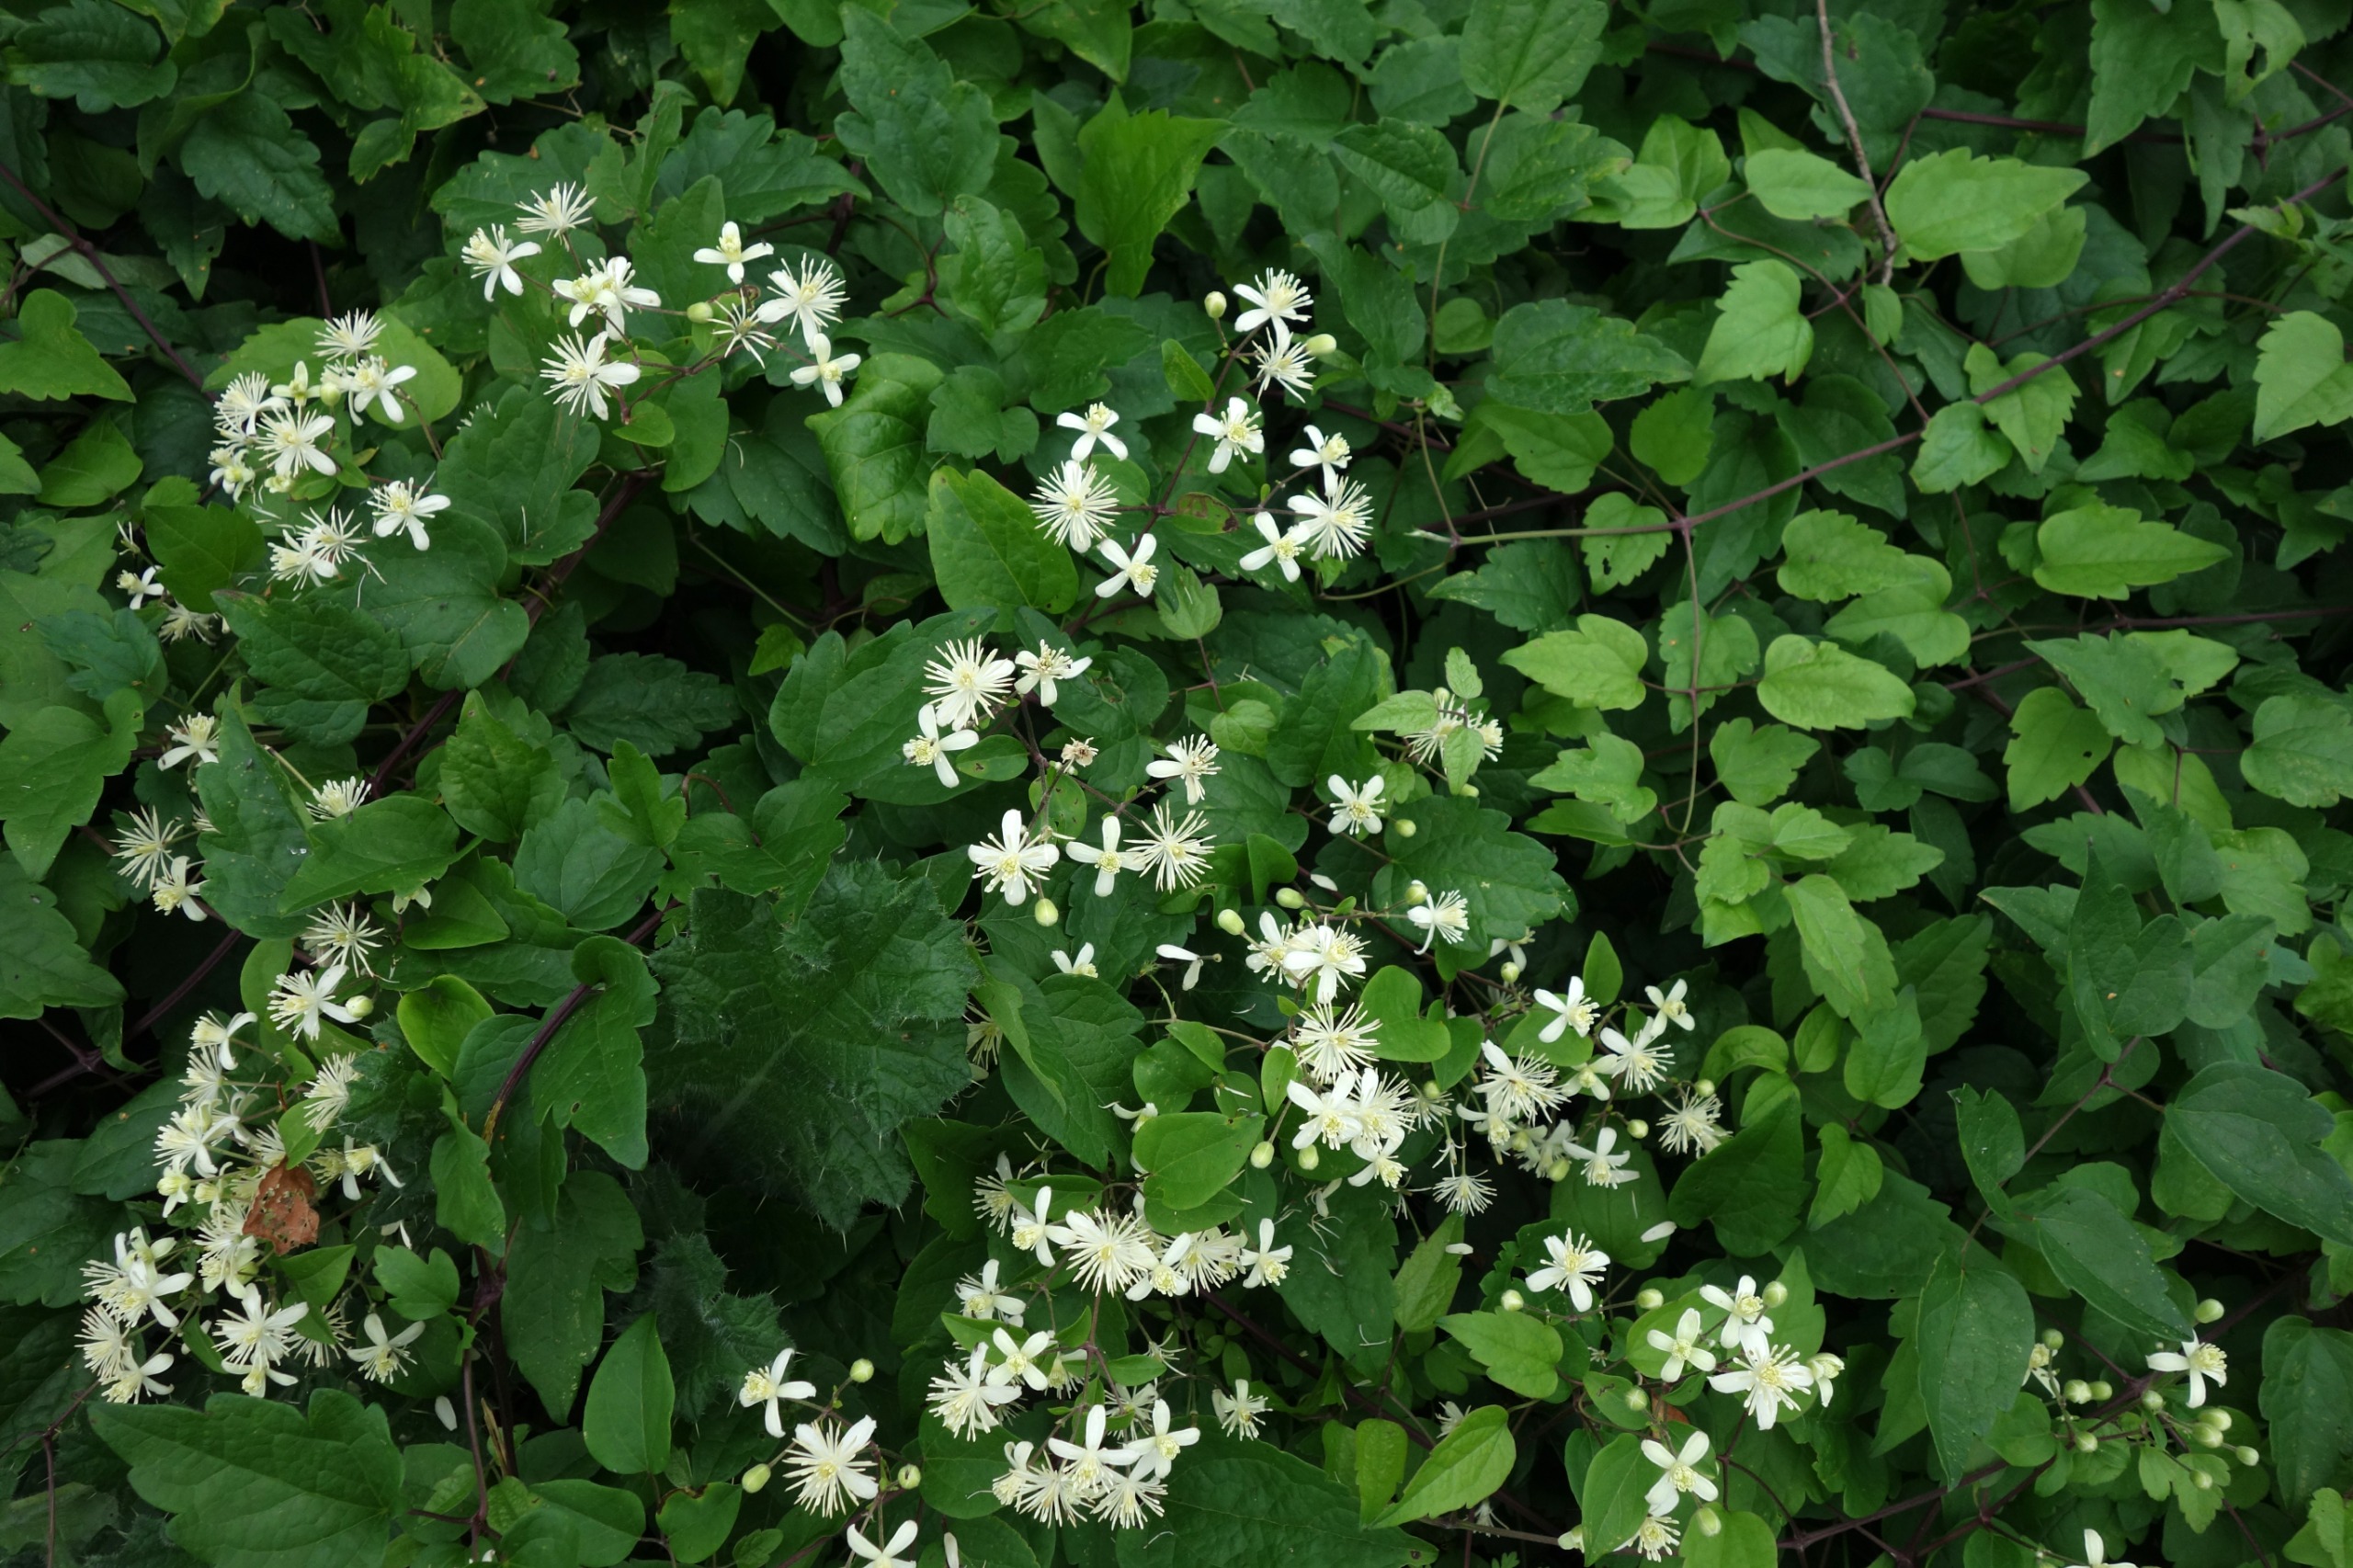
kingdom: Plantae
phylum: Tracheophyta
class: Magnoliopsida
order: Ranunculales
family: Ranunculaceae
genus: Clematis
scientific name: Clematis vitalba
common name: Skovranke
